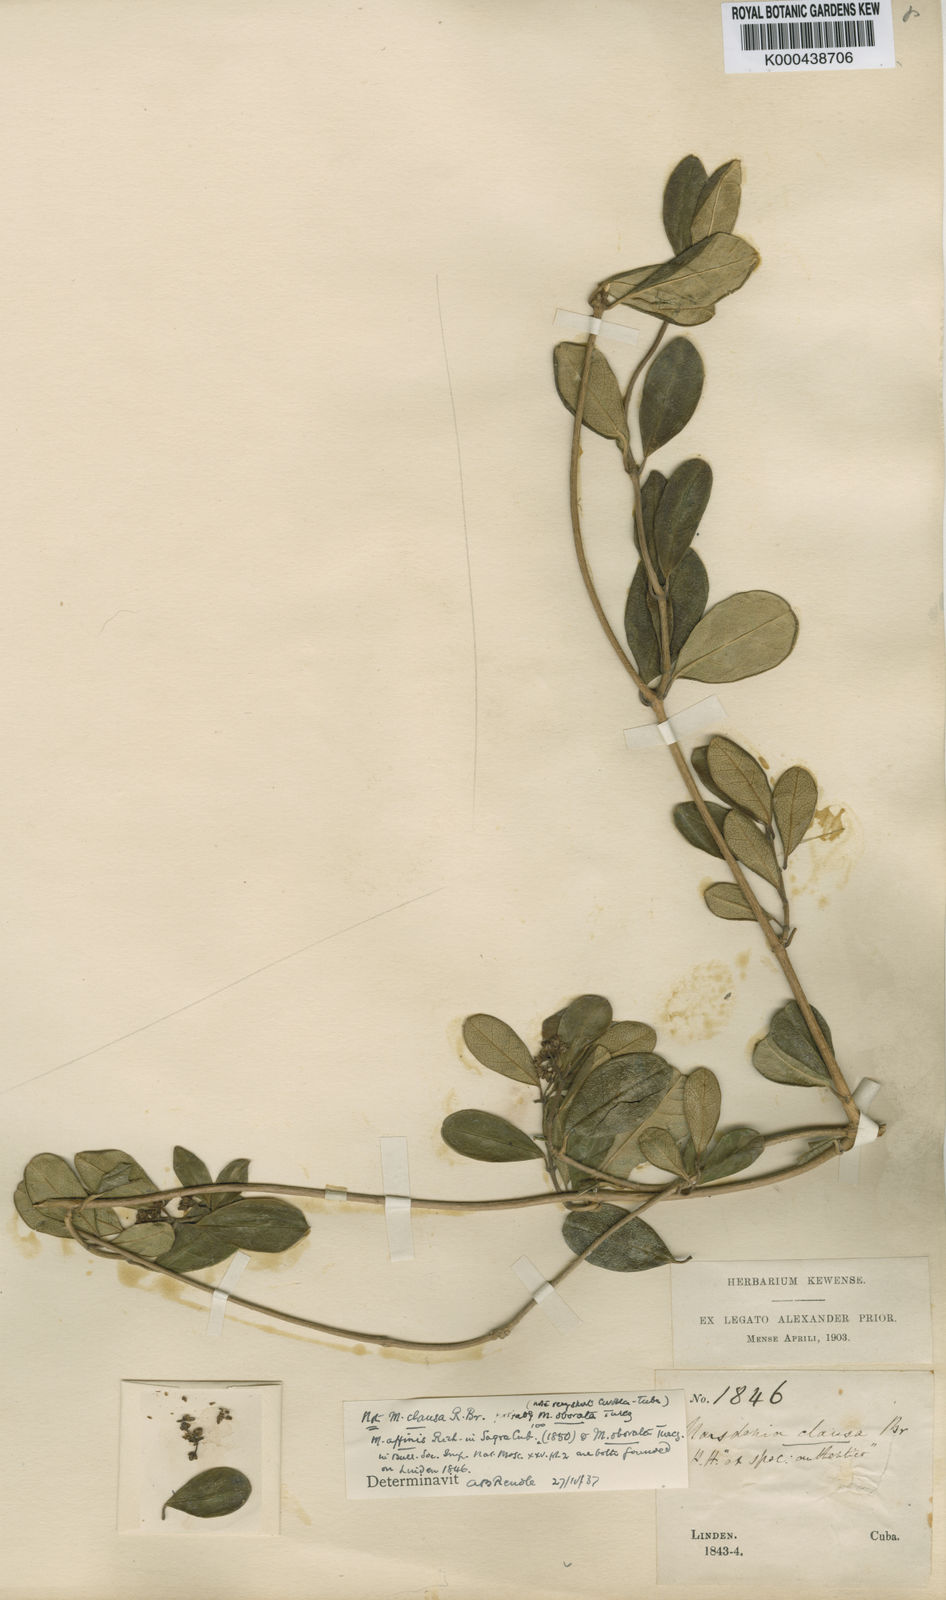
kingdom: Plantae
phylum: Tracheophyta
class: Magnoliopsida
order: Gentianales
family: Apocynaceae
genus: Ruehssia
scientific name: Ruehssia clausa
